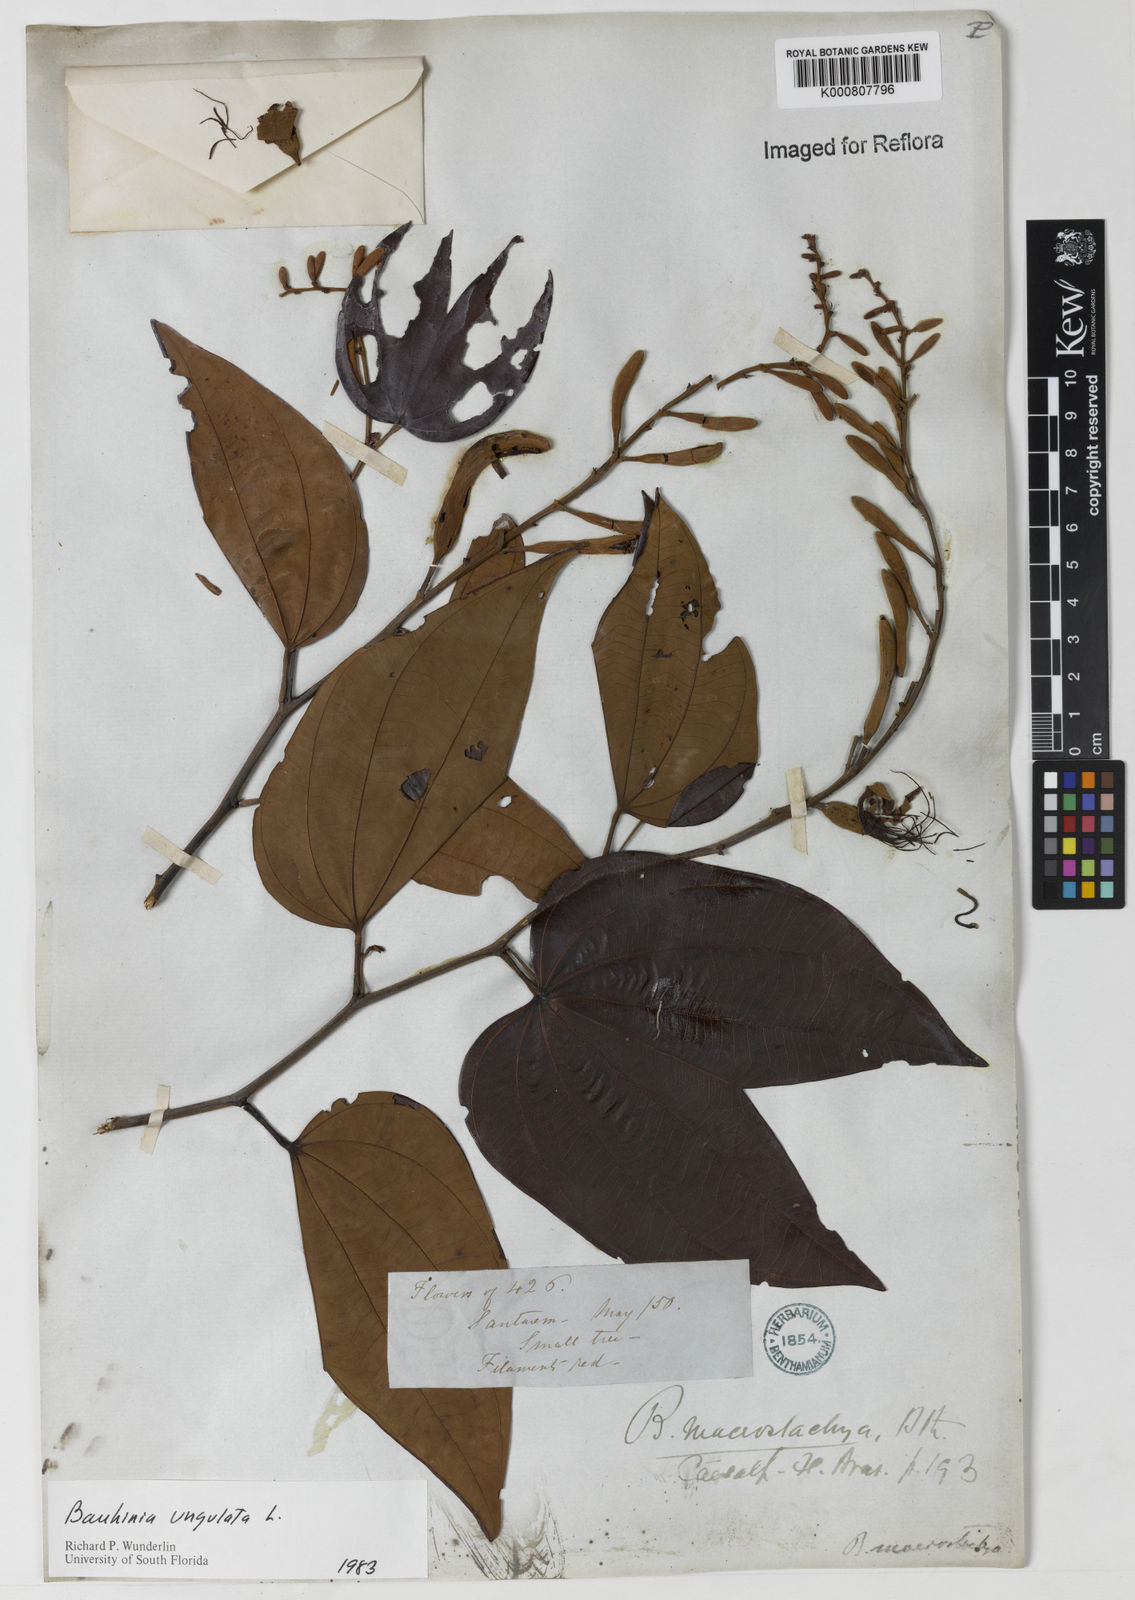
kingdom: Plantae
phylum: Tracheophyta
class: Magnoliopsida
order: Fabales
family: Fabaceae
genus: Bauhinia
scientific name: Bauhinia ungulata
